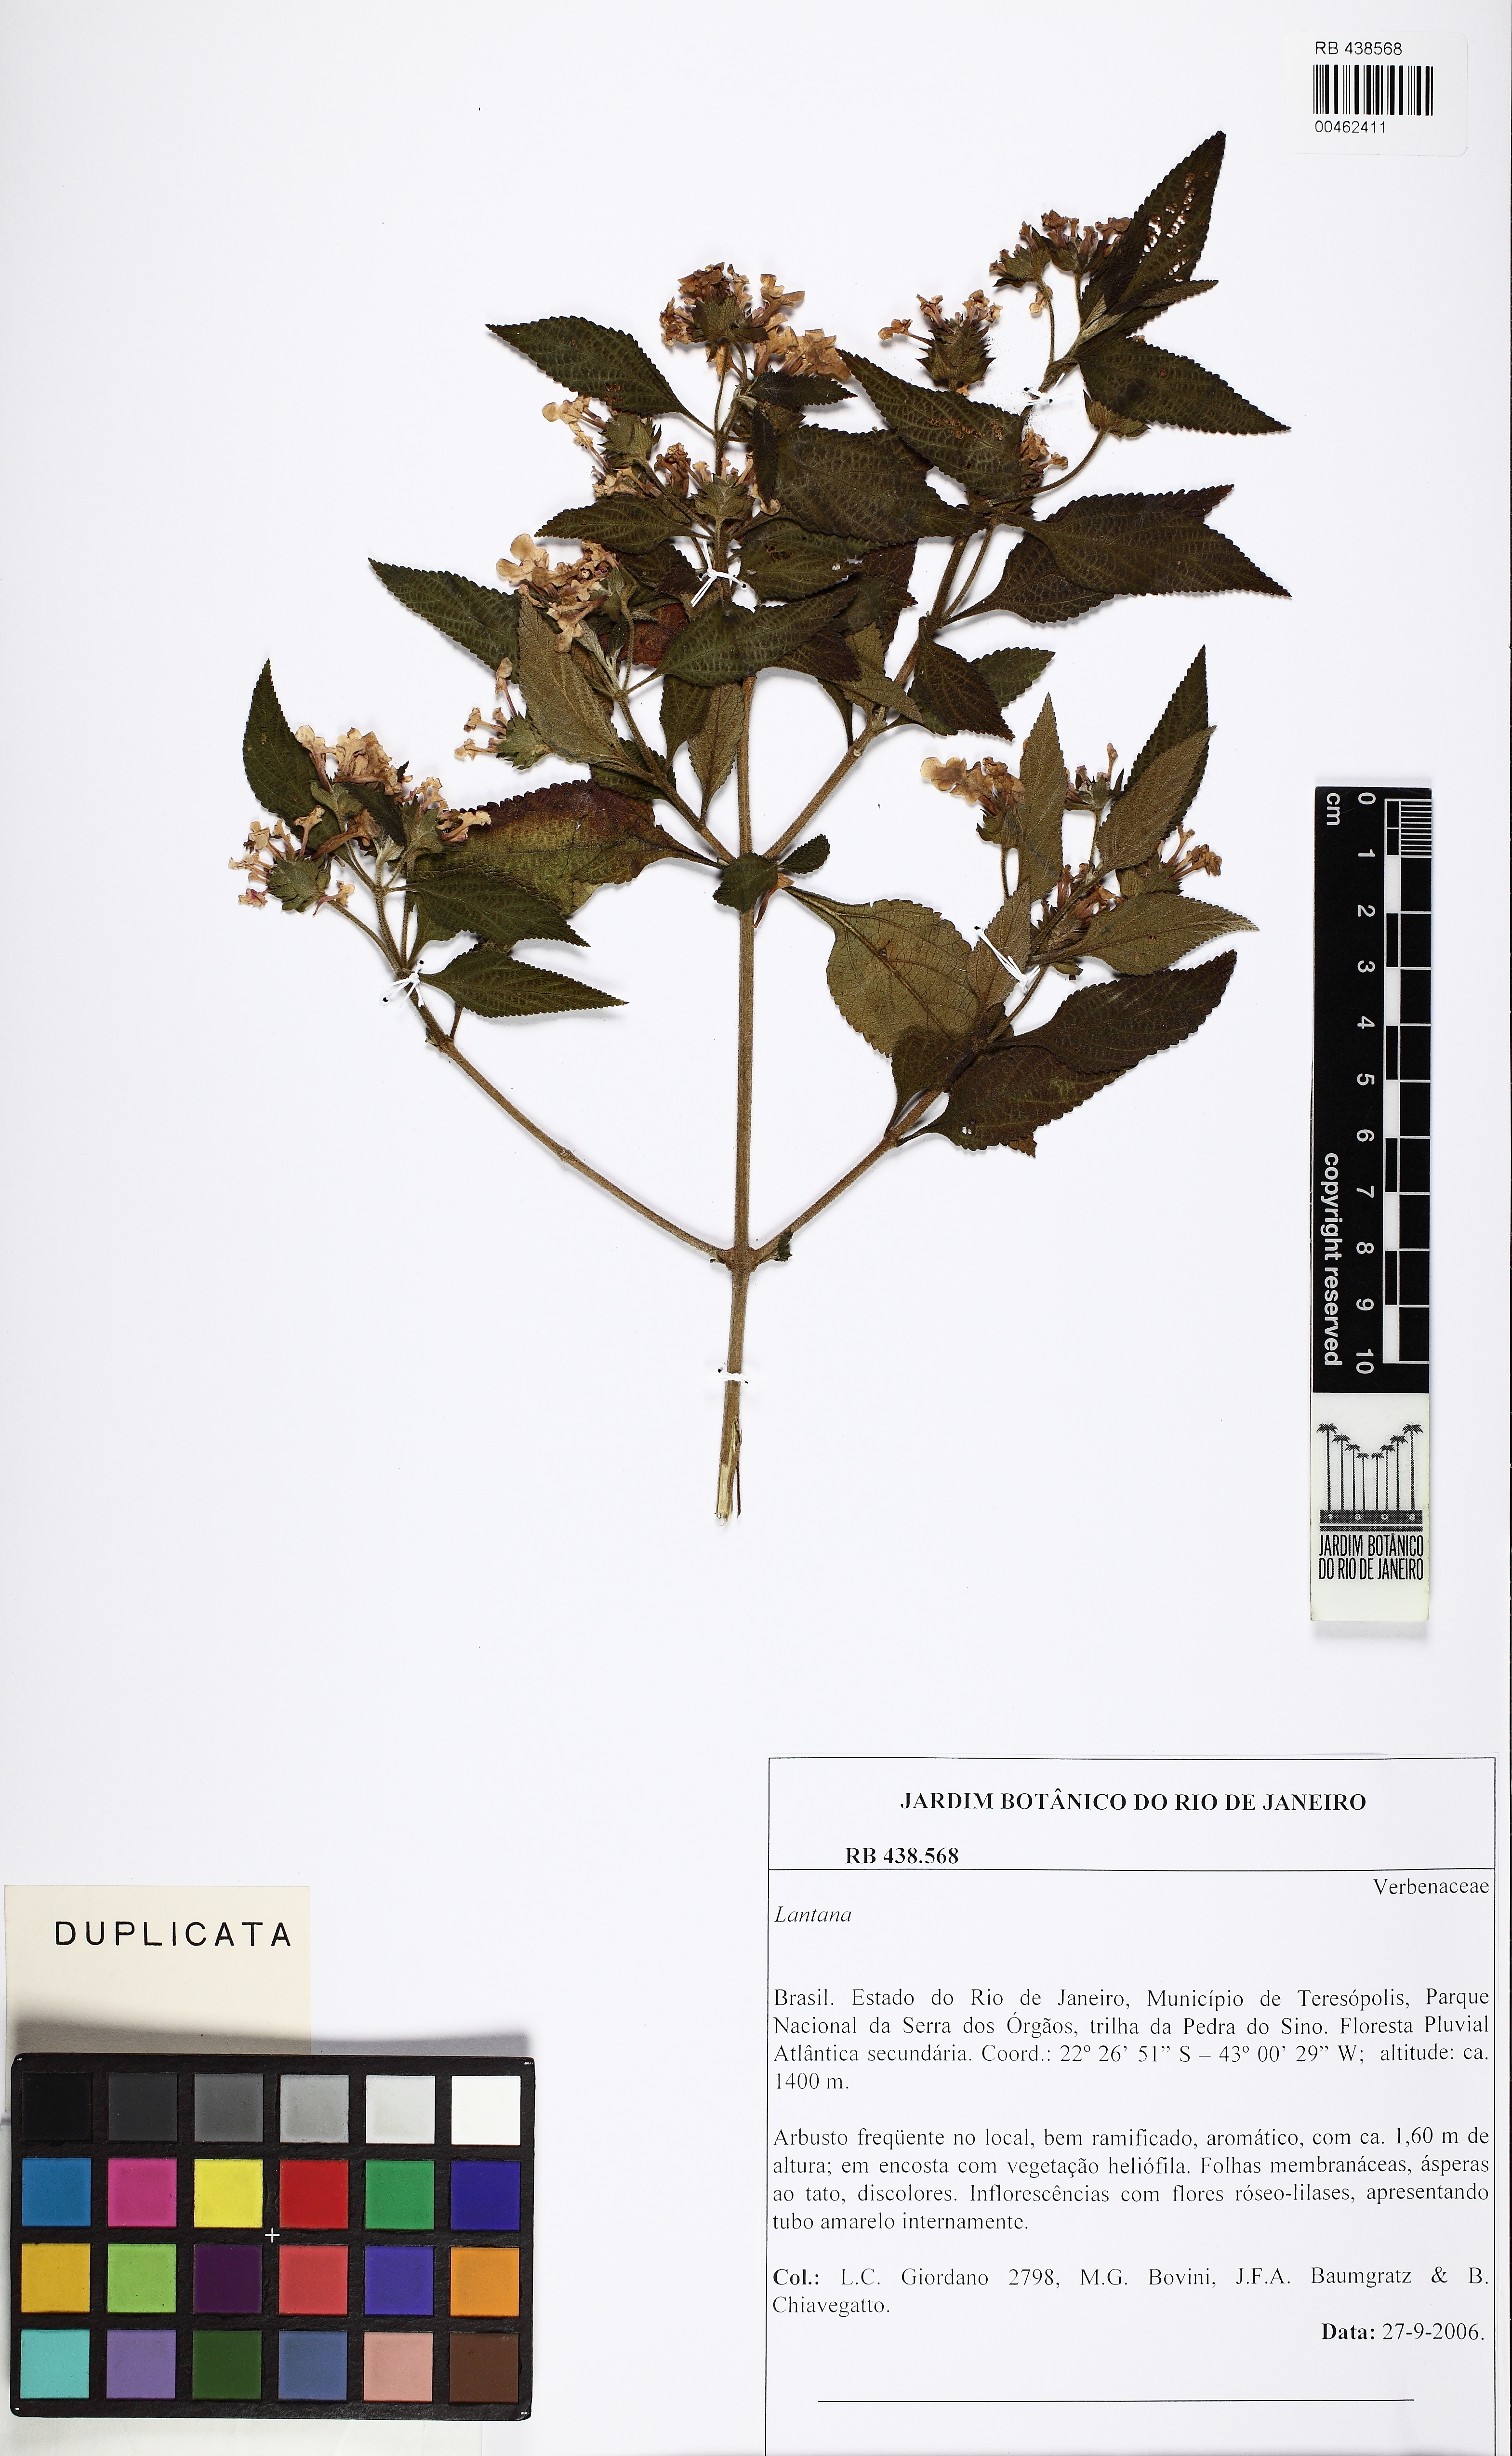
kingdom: Plantae
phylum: Tracheophyta
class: Magnoliopsida
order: Lamiales
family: Verbenaceae
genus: Lantana
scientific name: Lantana
